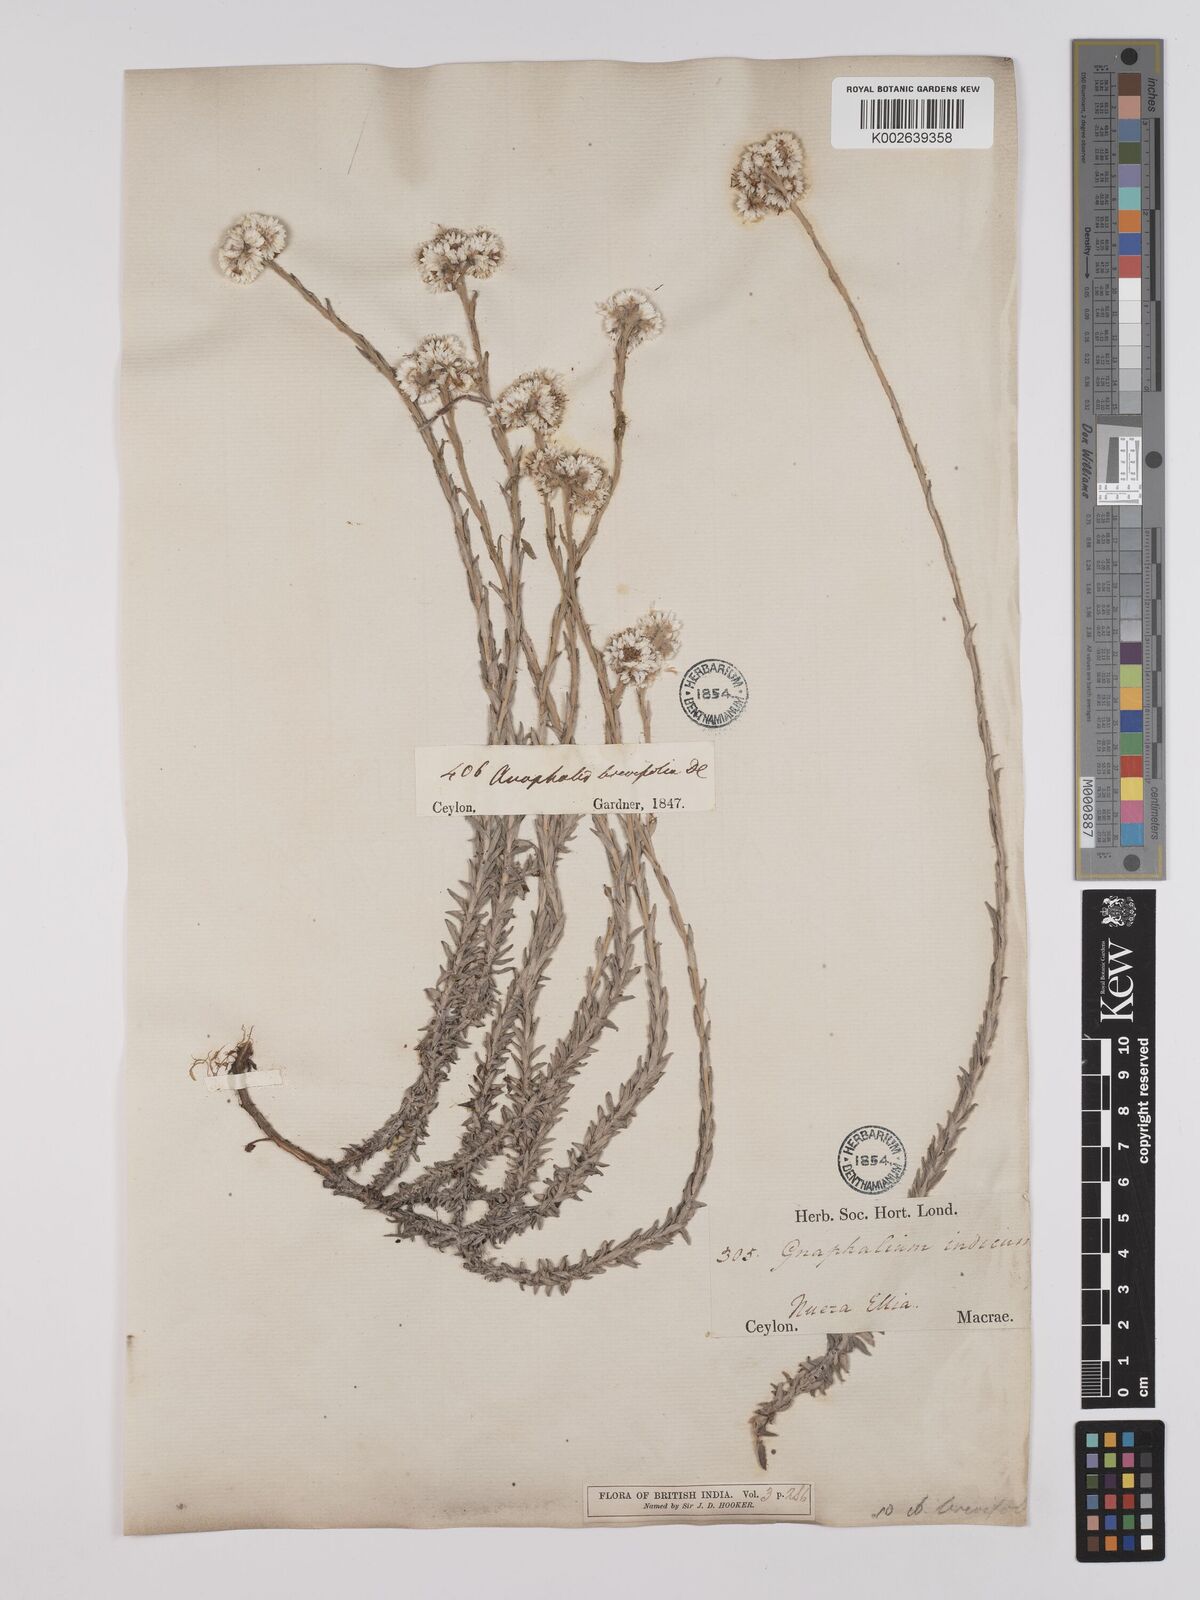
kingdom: Plantae
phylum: Tracheophyta
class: Magnoliopsida
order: Asterales
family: Asteraceae
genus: Anaphalis
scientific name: Anaphalis brevifolia
